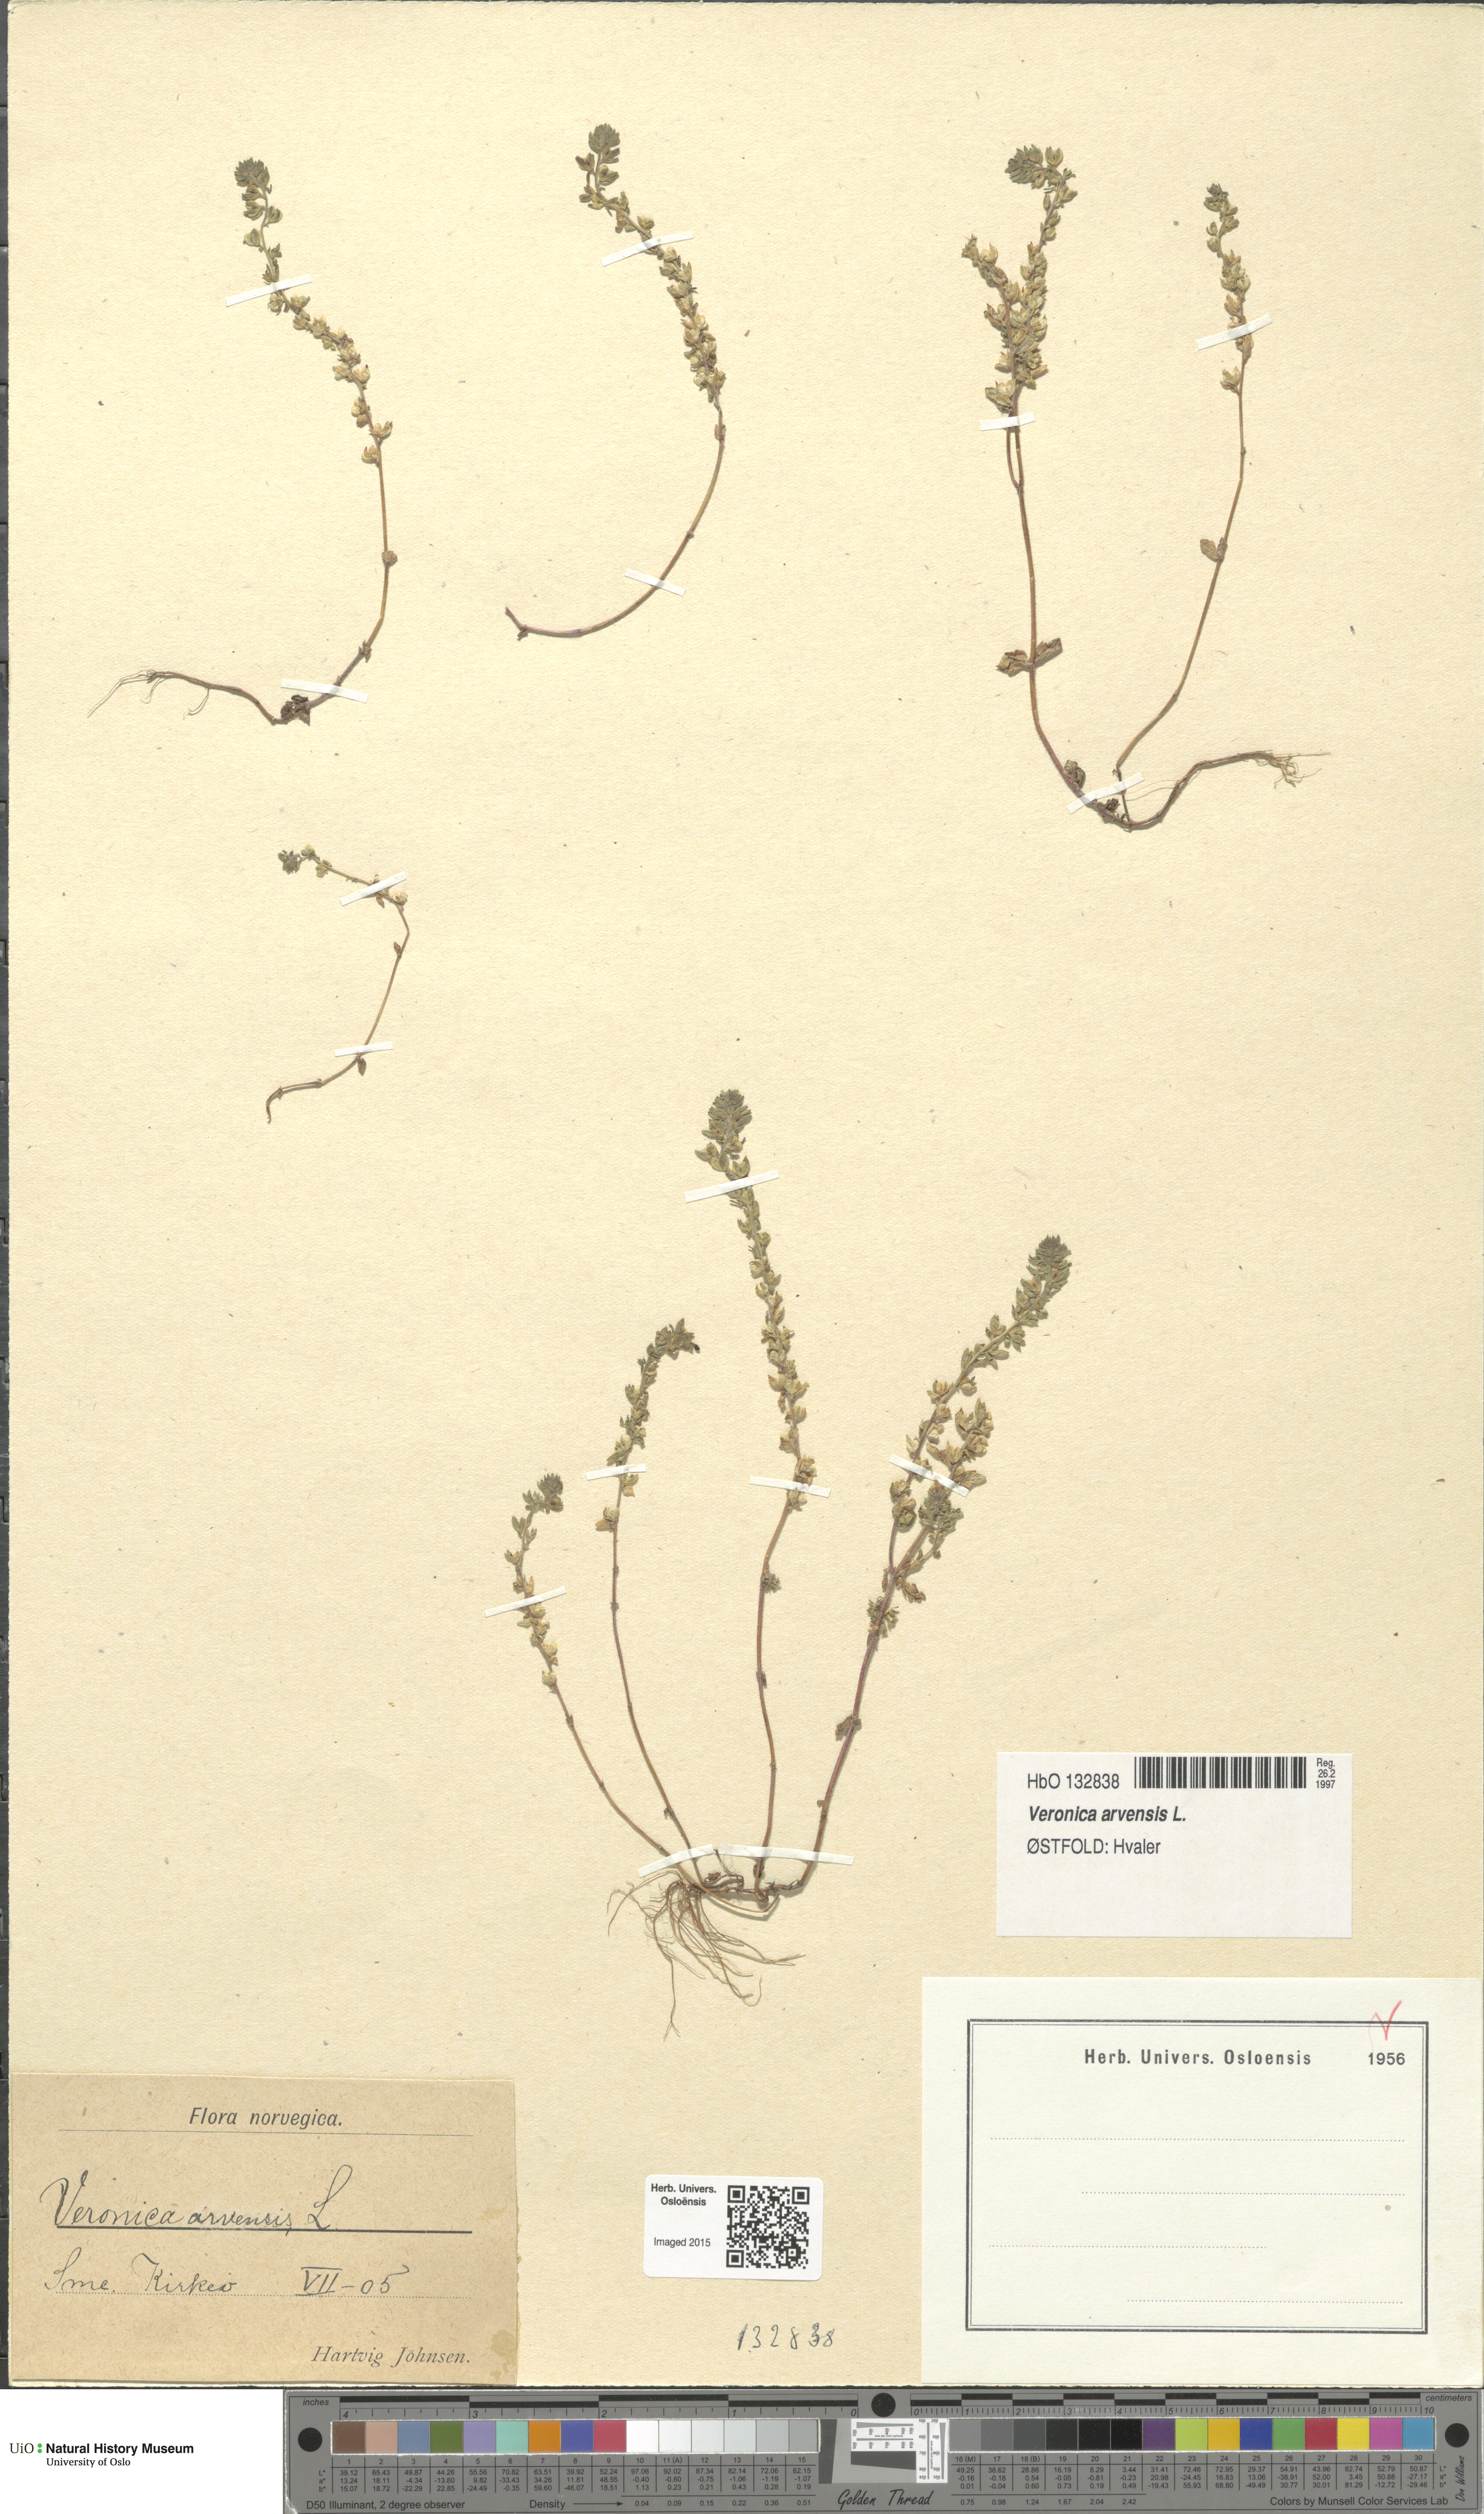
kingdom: Plantae
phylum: Tracheophyta
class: Magnoliopsida
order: Lamiales
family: Plantaginaceae
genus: Veronica
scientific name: Veronica arvensis
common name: Corn speedwell
